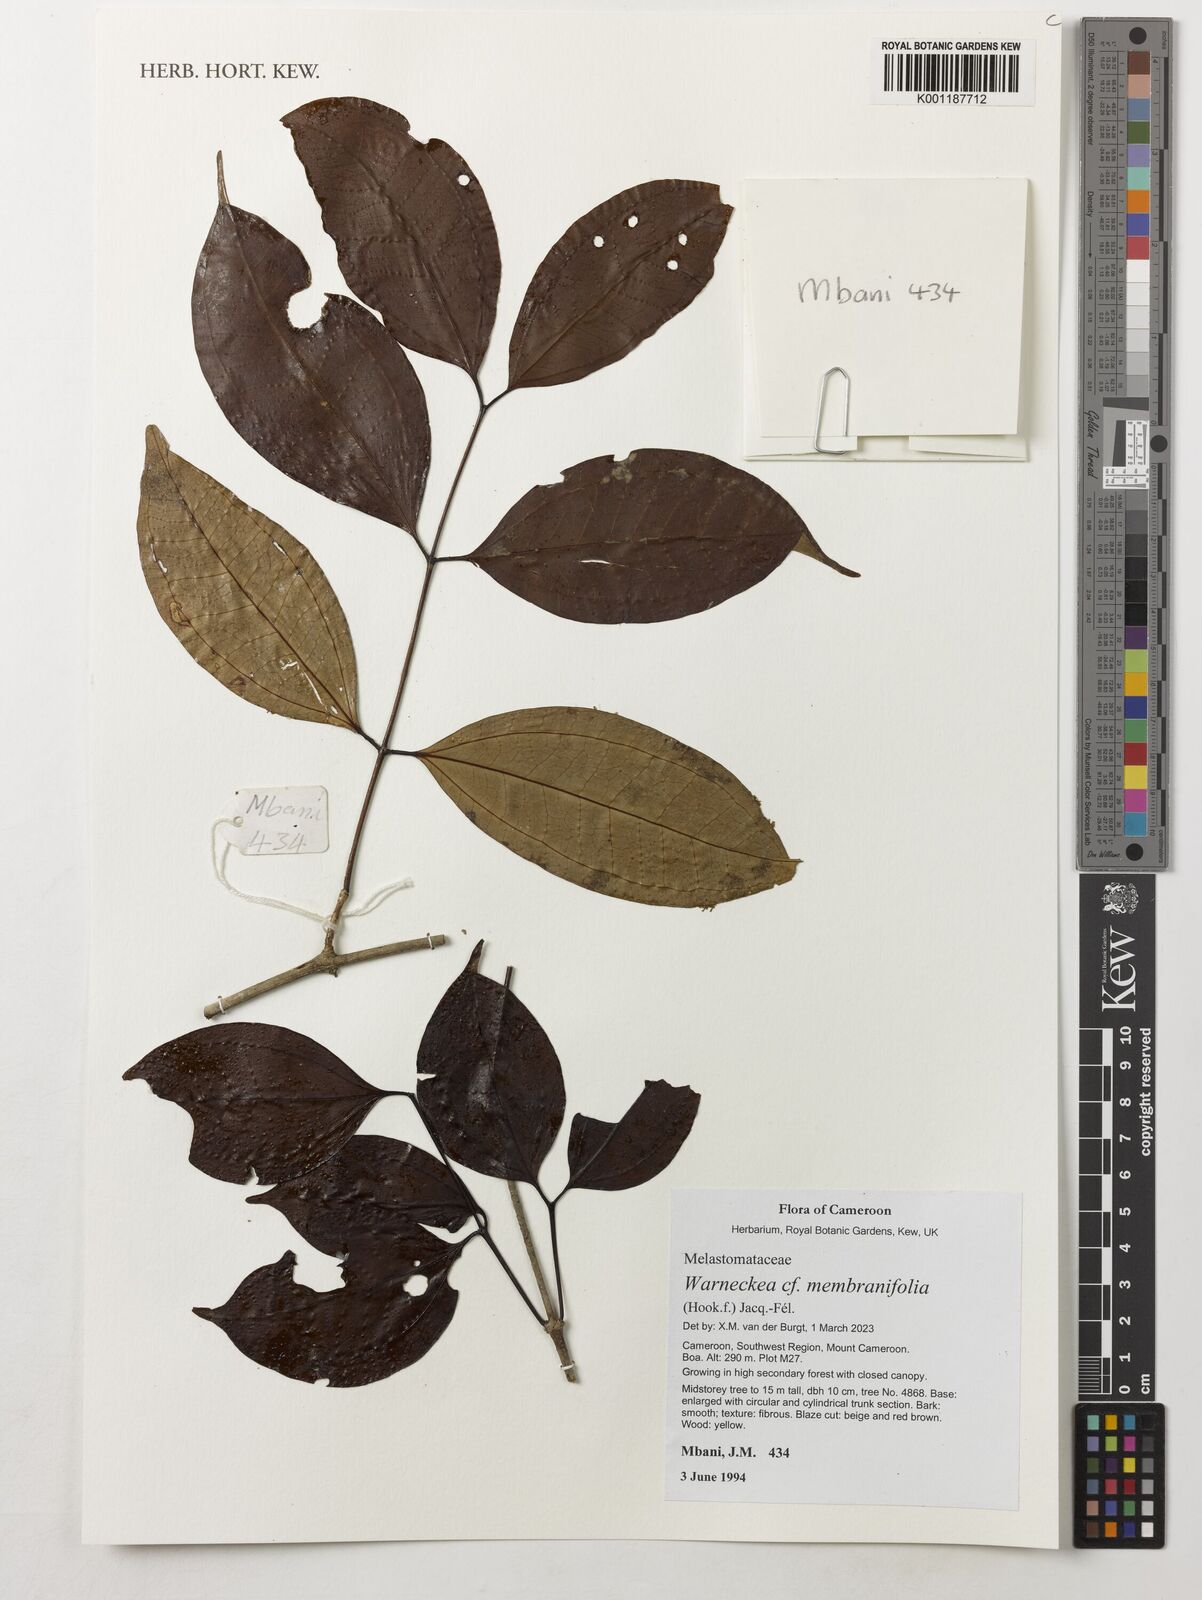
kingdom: Plantae
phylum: Tracheophyta
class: Magnoliopsida
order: Myrtales
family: Melastomataceae
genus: Warneckea
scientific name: Warneckea membranifolia
